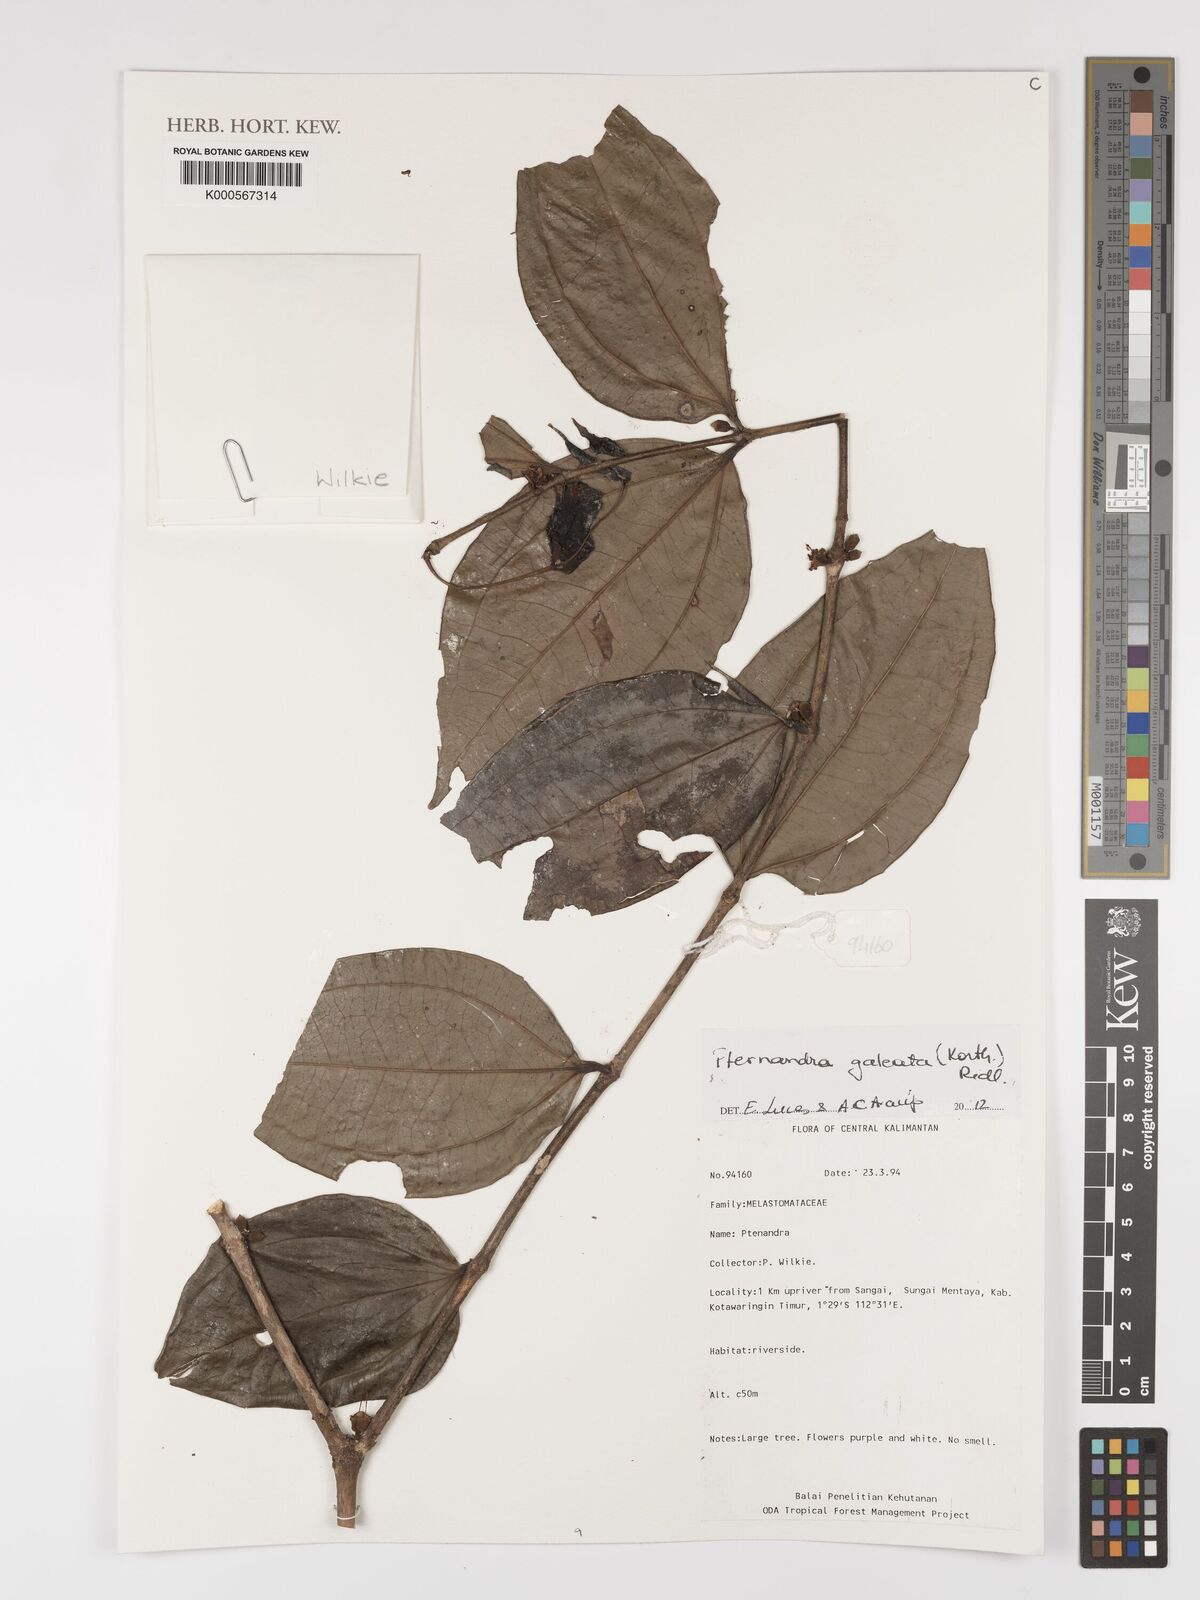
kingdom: Plantae
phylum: Tracheophyta
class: Magnoliopsida
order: Myrtales
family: Melastomataceae
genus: Pternandra
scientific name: Pternandra galeata
